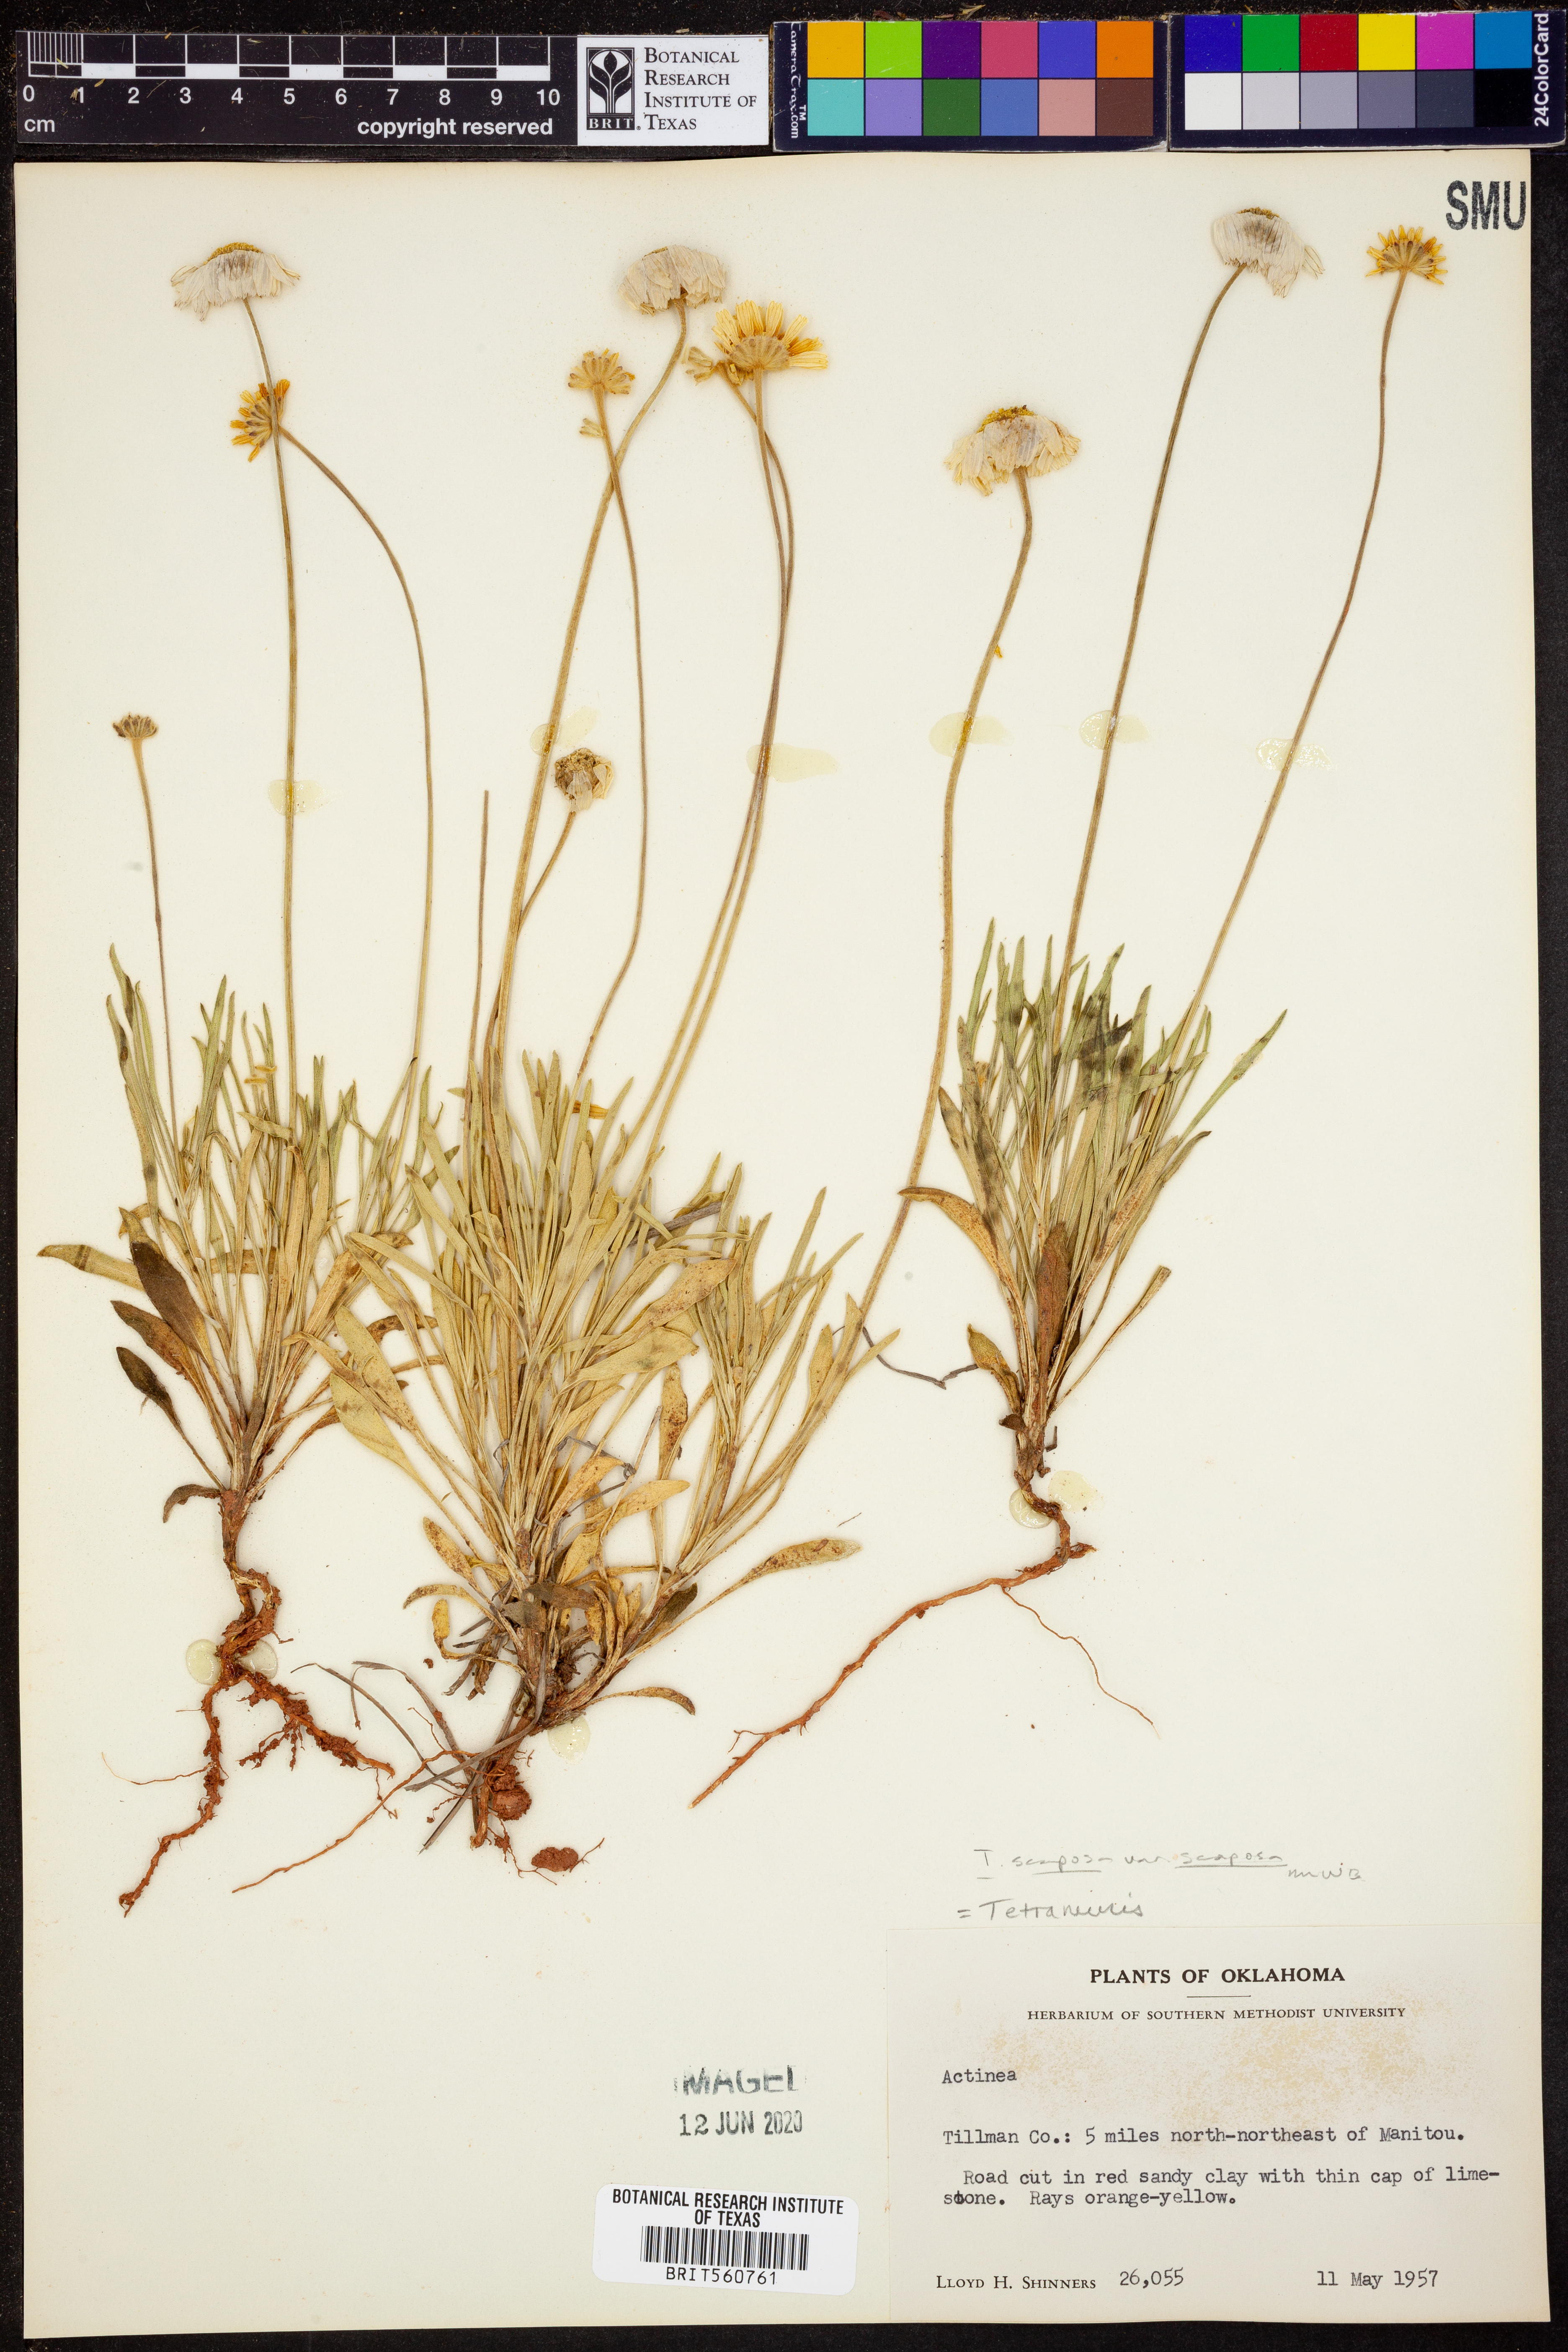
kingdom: Plantae
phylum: Tracheophyta
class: Magnoliopsida
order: Asterales
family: Asteraceae
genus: Tetraneuris
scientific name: Tetraneuris scaposa
